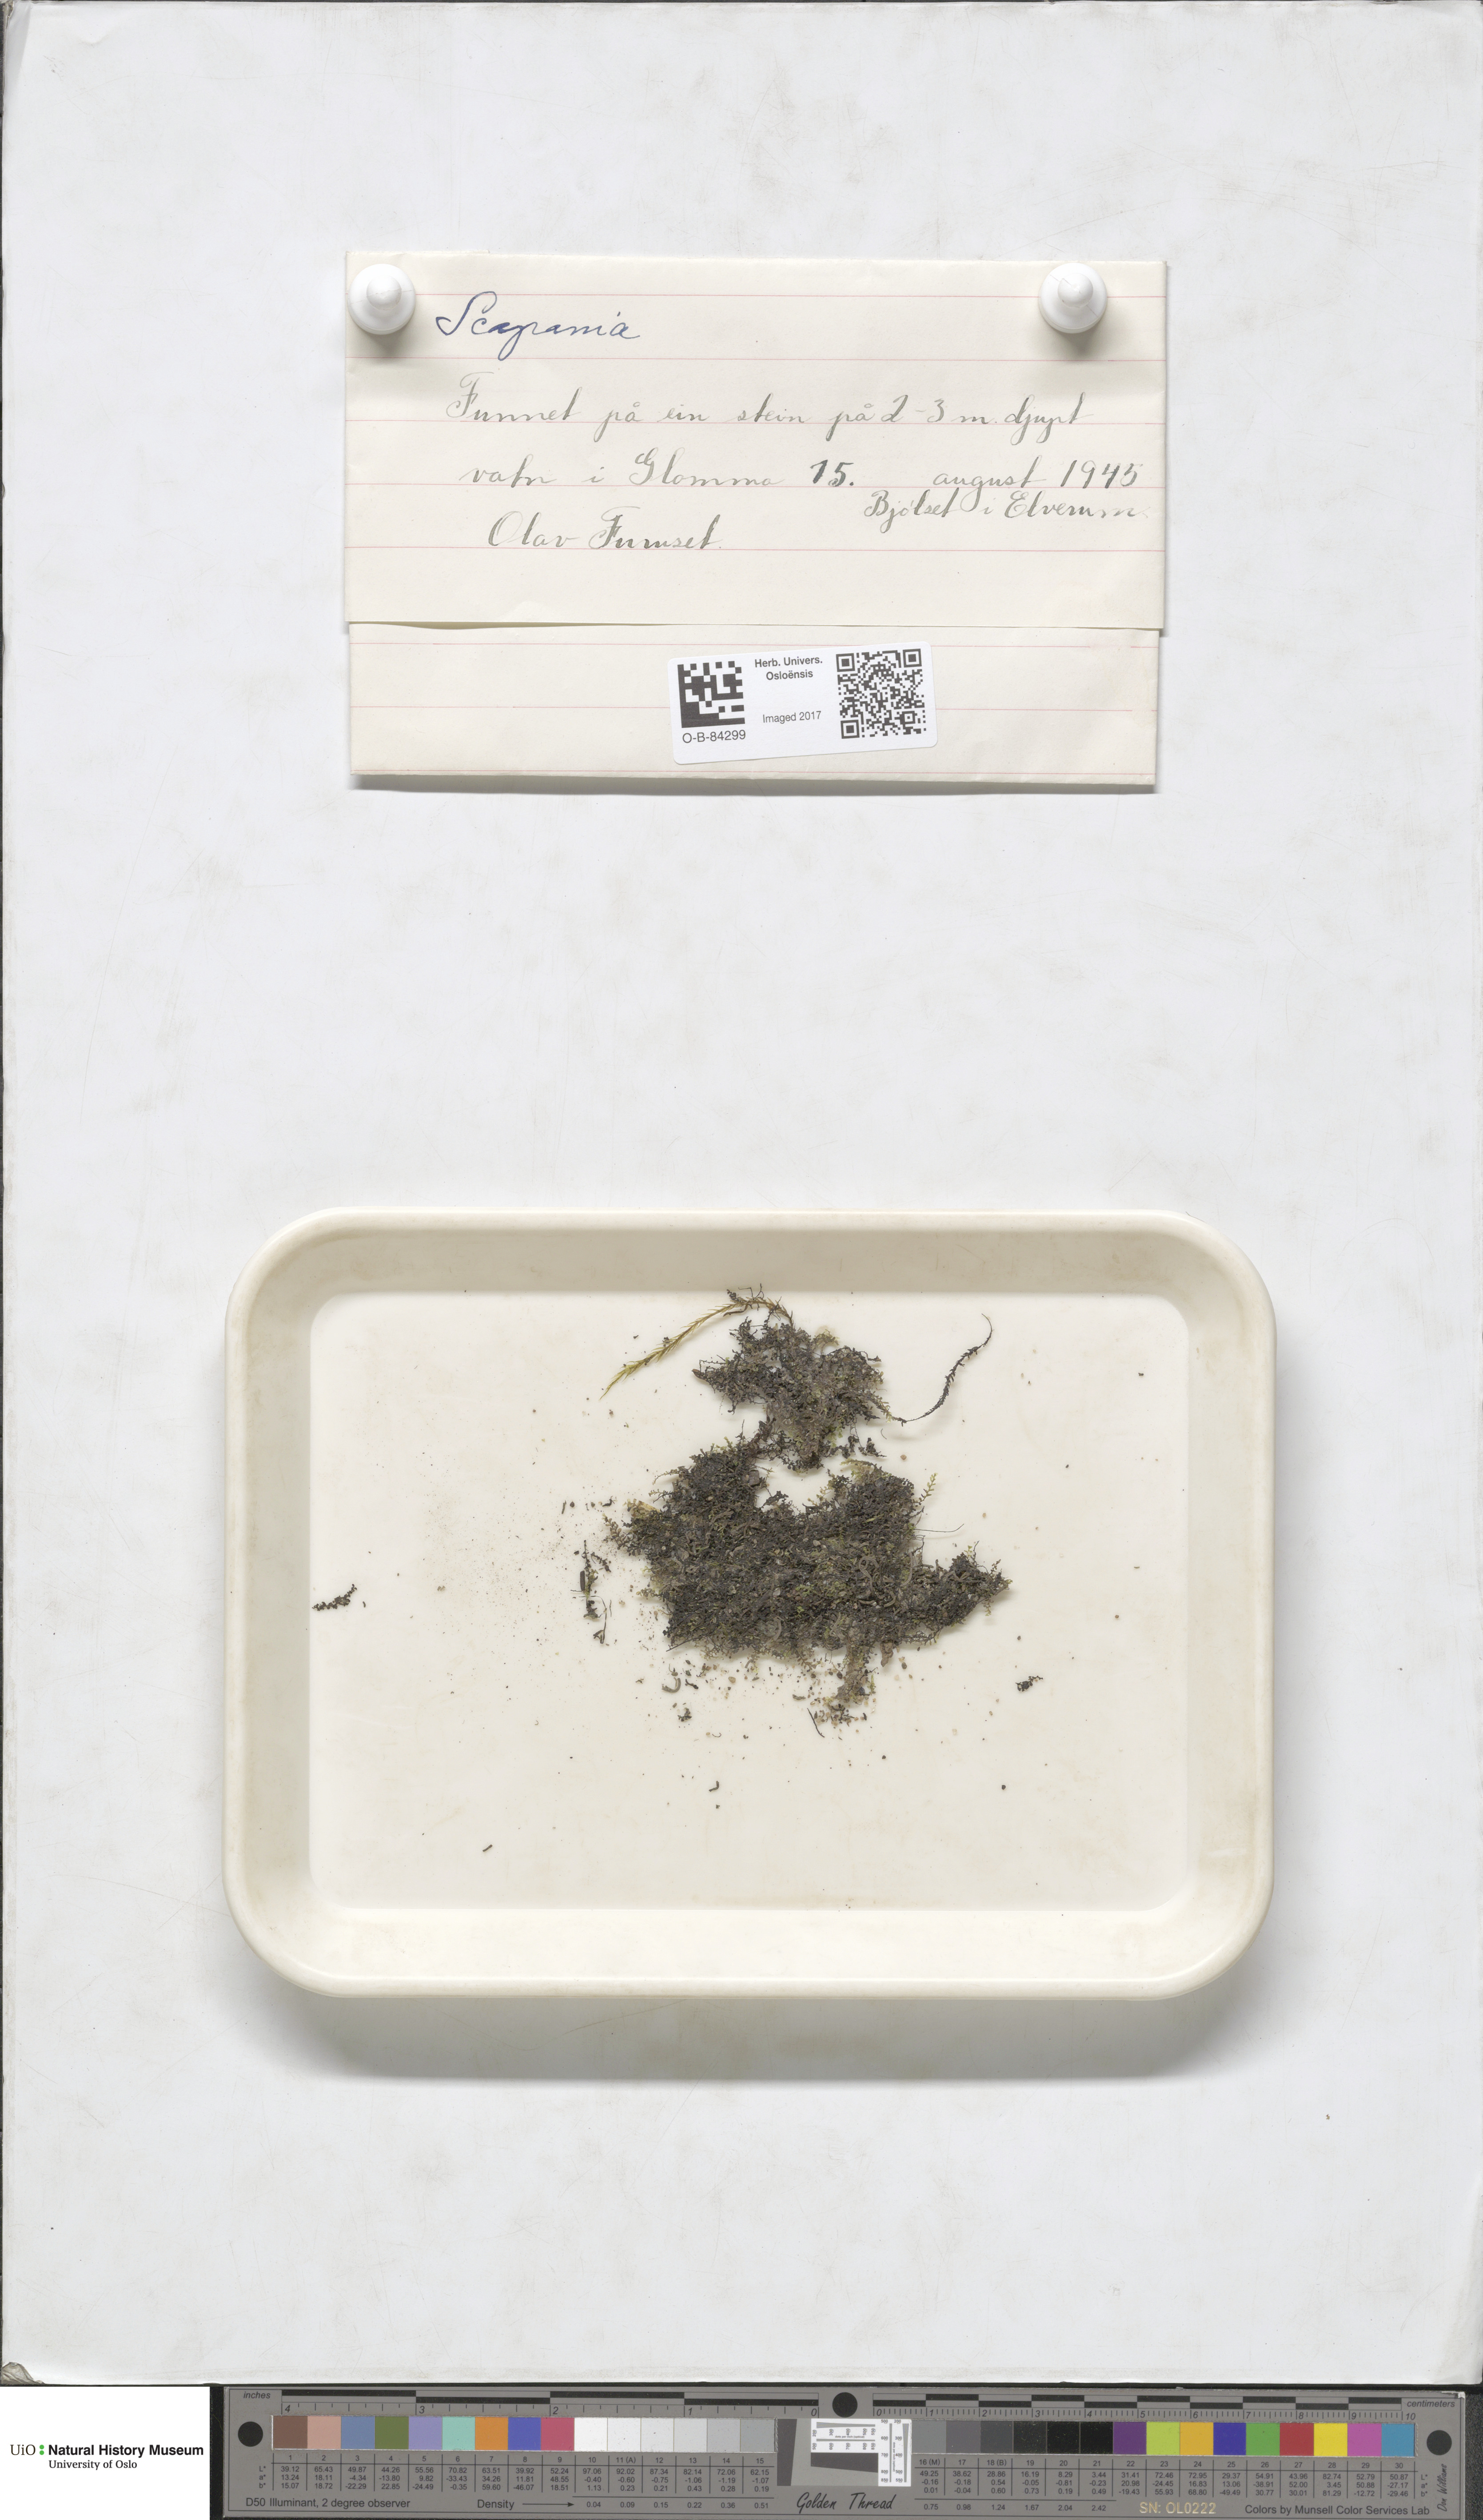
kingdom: Plantae
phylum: Marchantiophyta
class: Jungermanniopsida
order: Jungermanniales
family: Scapaniaceae
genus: Scapania
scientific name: Scapania
